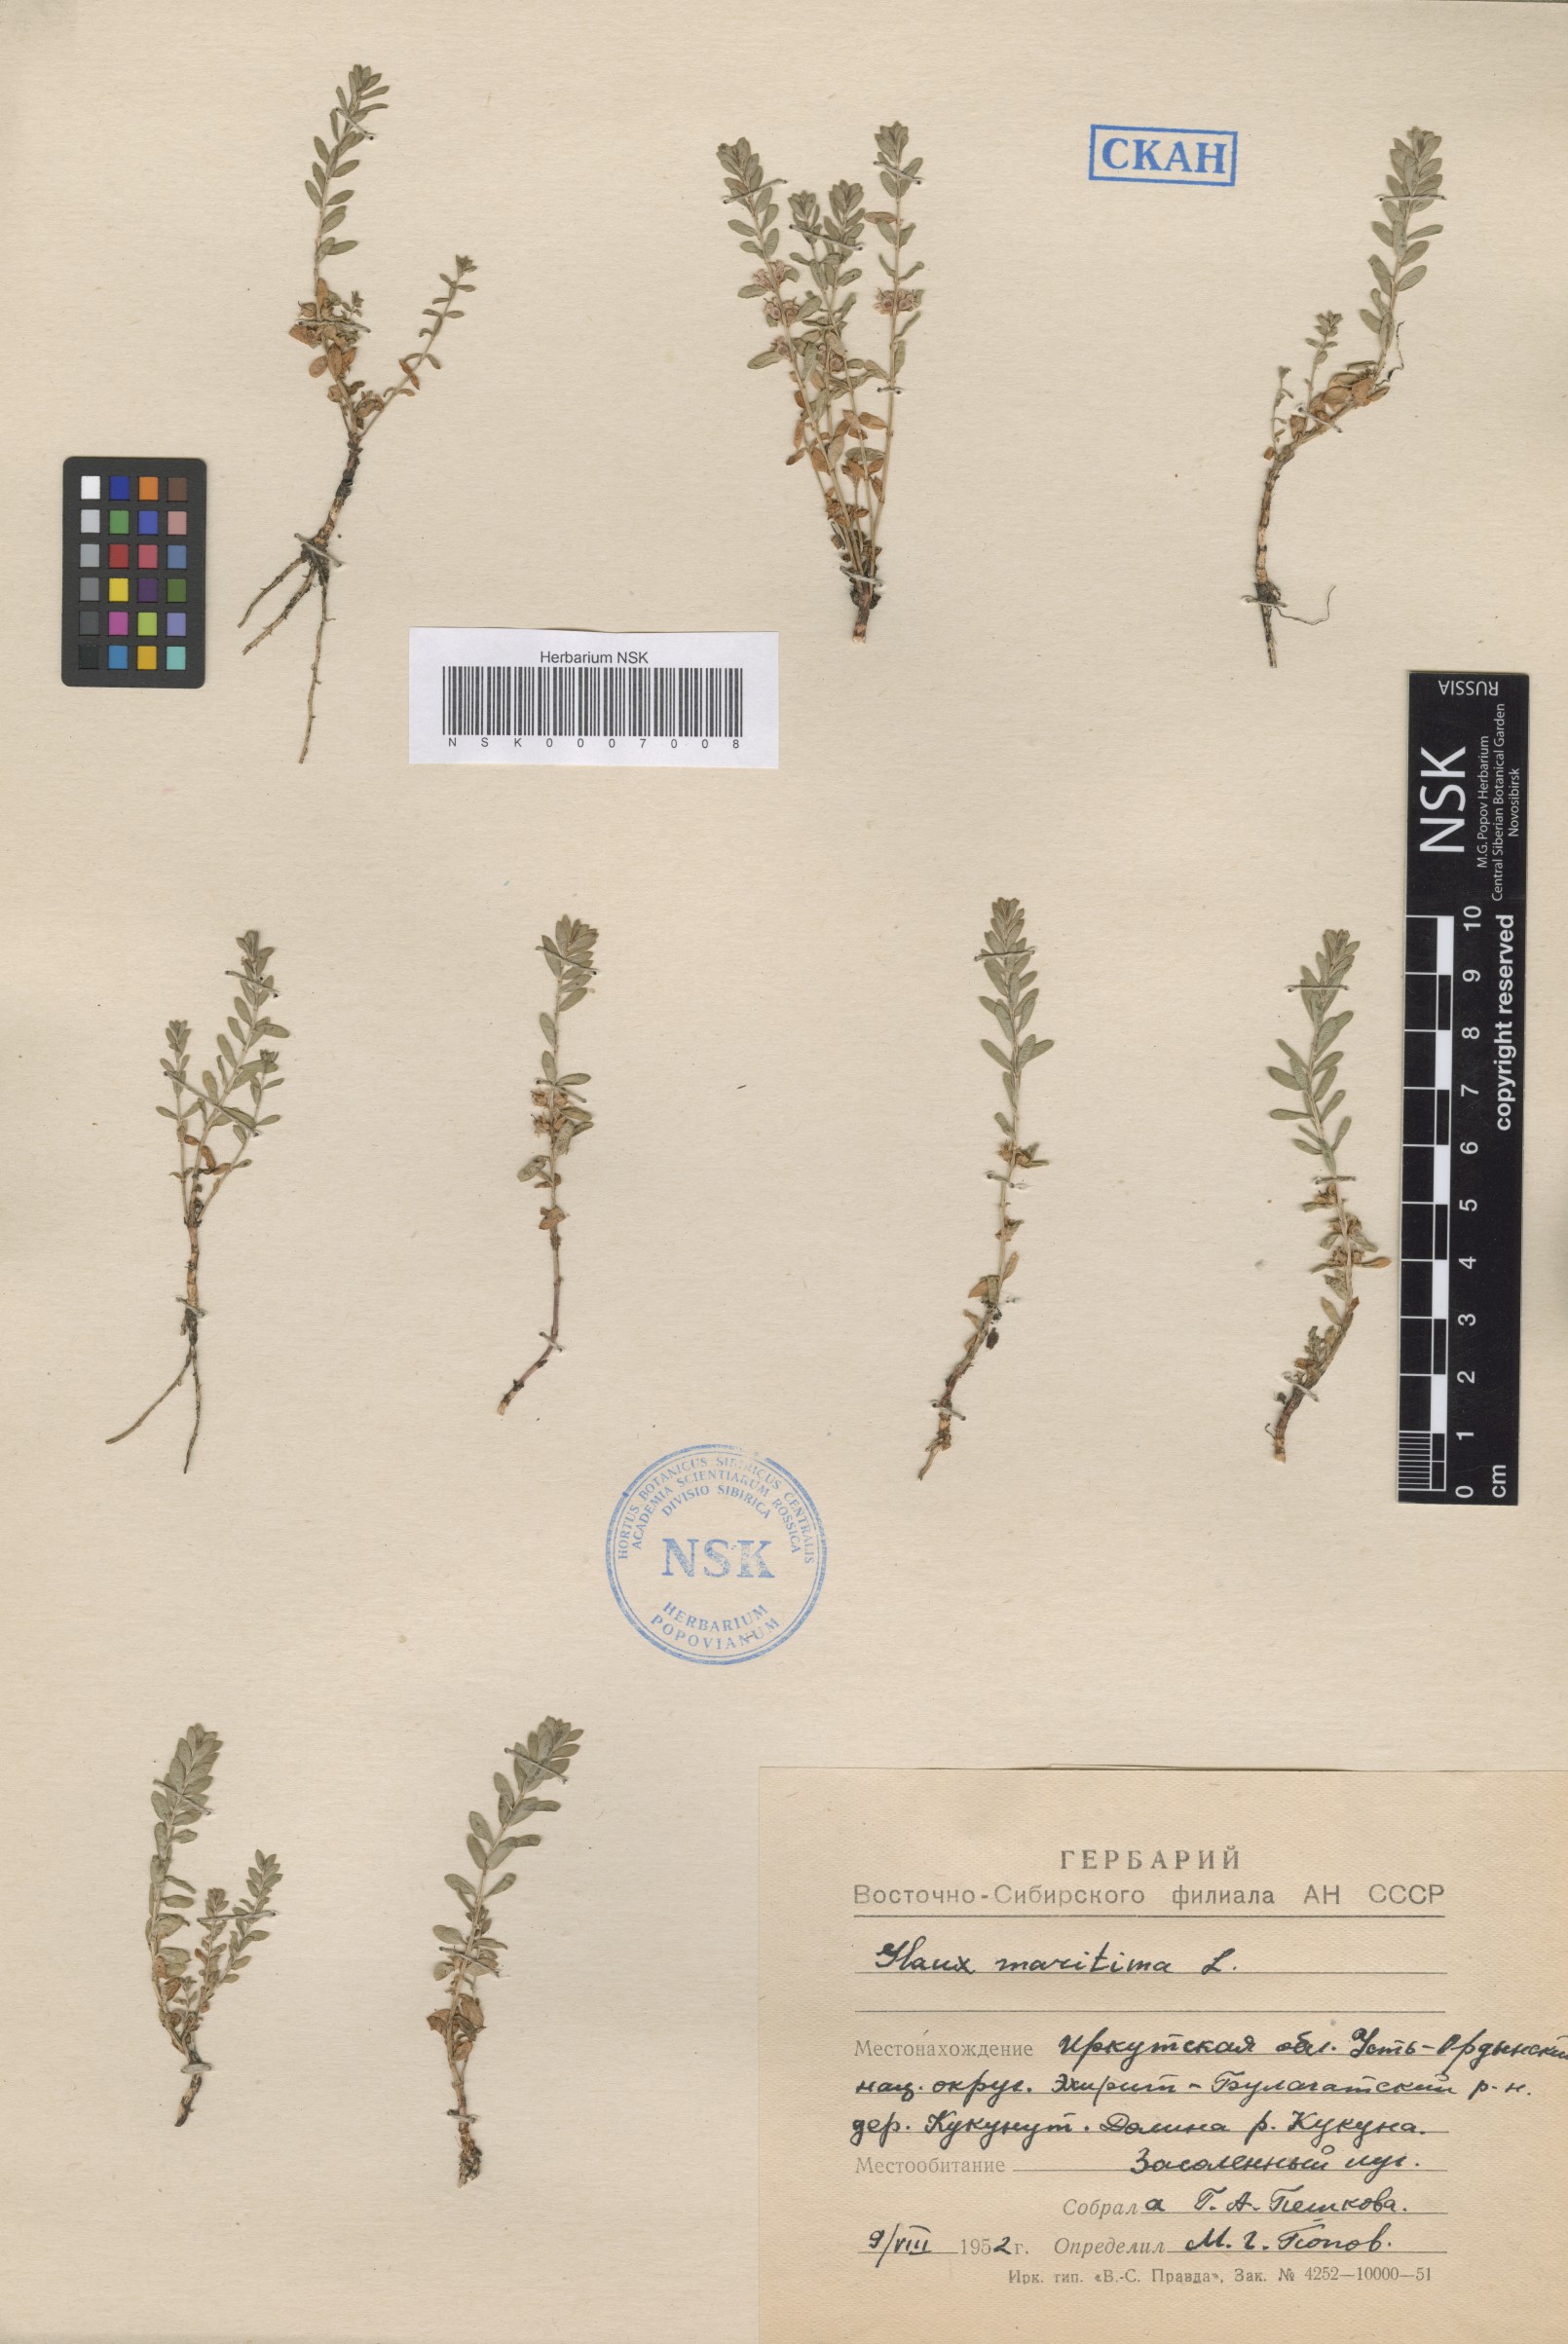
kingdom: Plantae
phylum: Tracheophyta
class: Magnoliopsida
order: Ericales
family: Primulaceae
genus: Lysimachia
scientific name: Lysimachia maritima
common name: Sea milkwort
